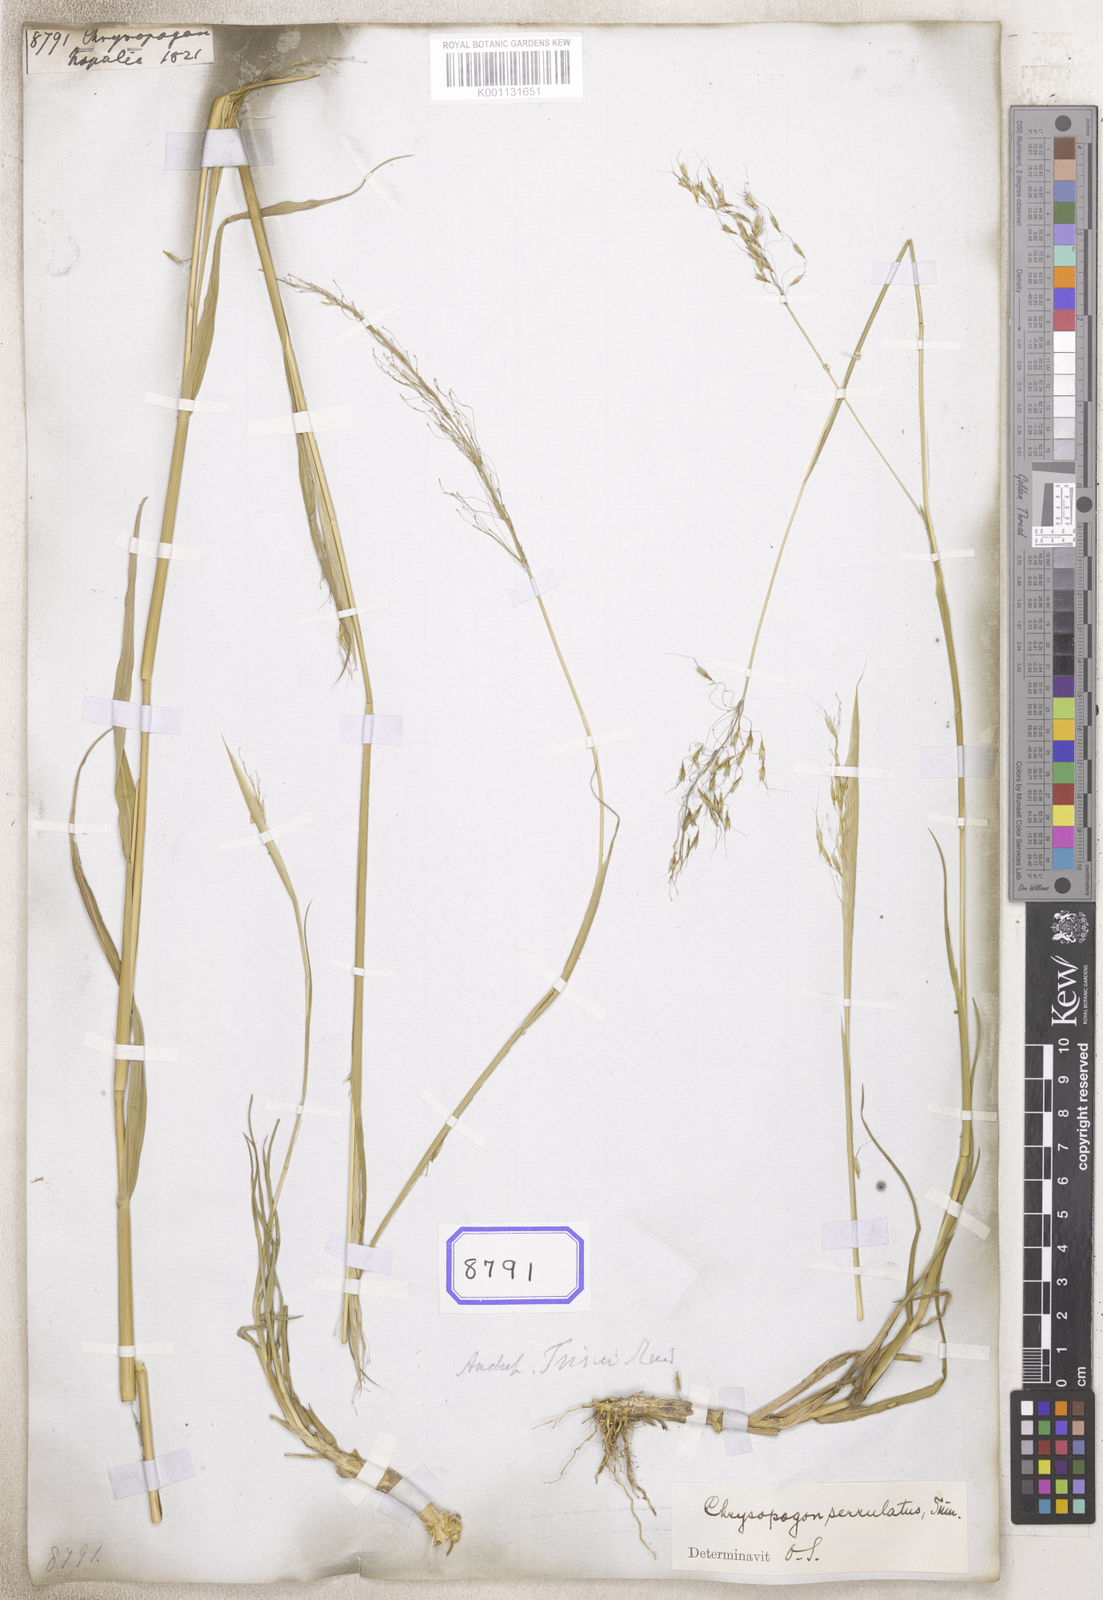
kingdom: Plantae
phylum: Tracheophyta
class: Liliopsida
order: Poales
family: Poaceae
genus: Chrysopogon
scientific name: Chrysopogon
